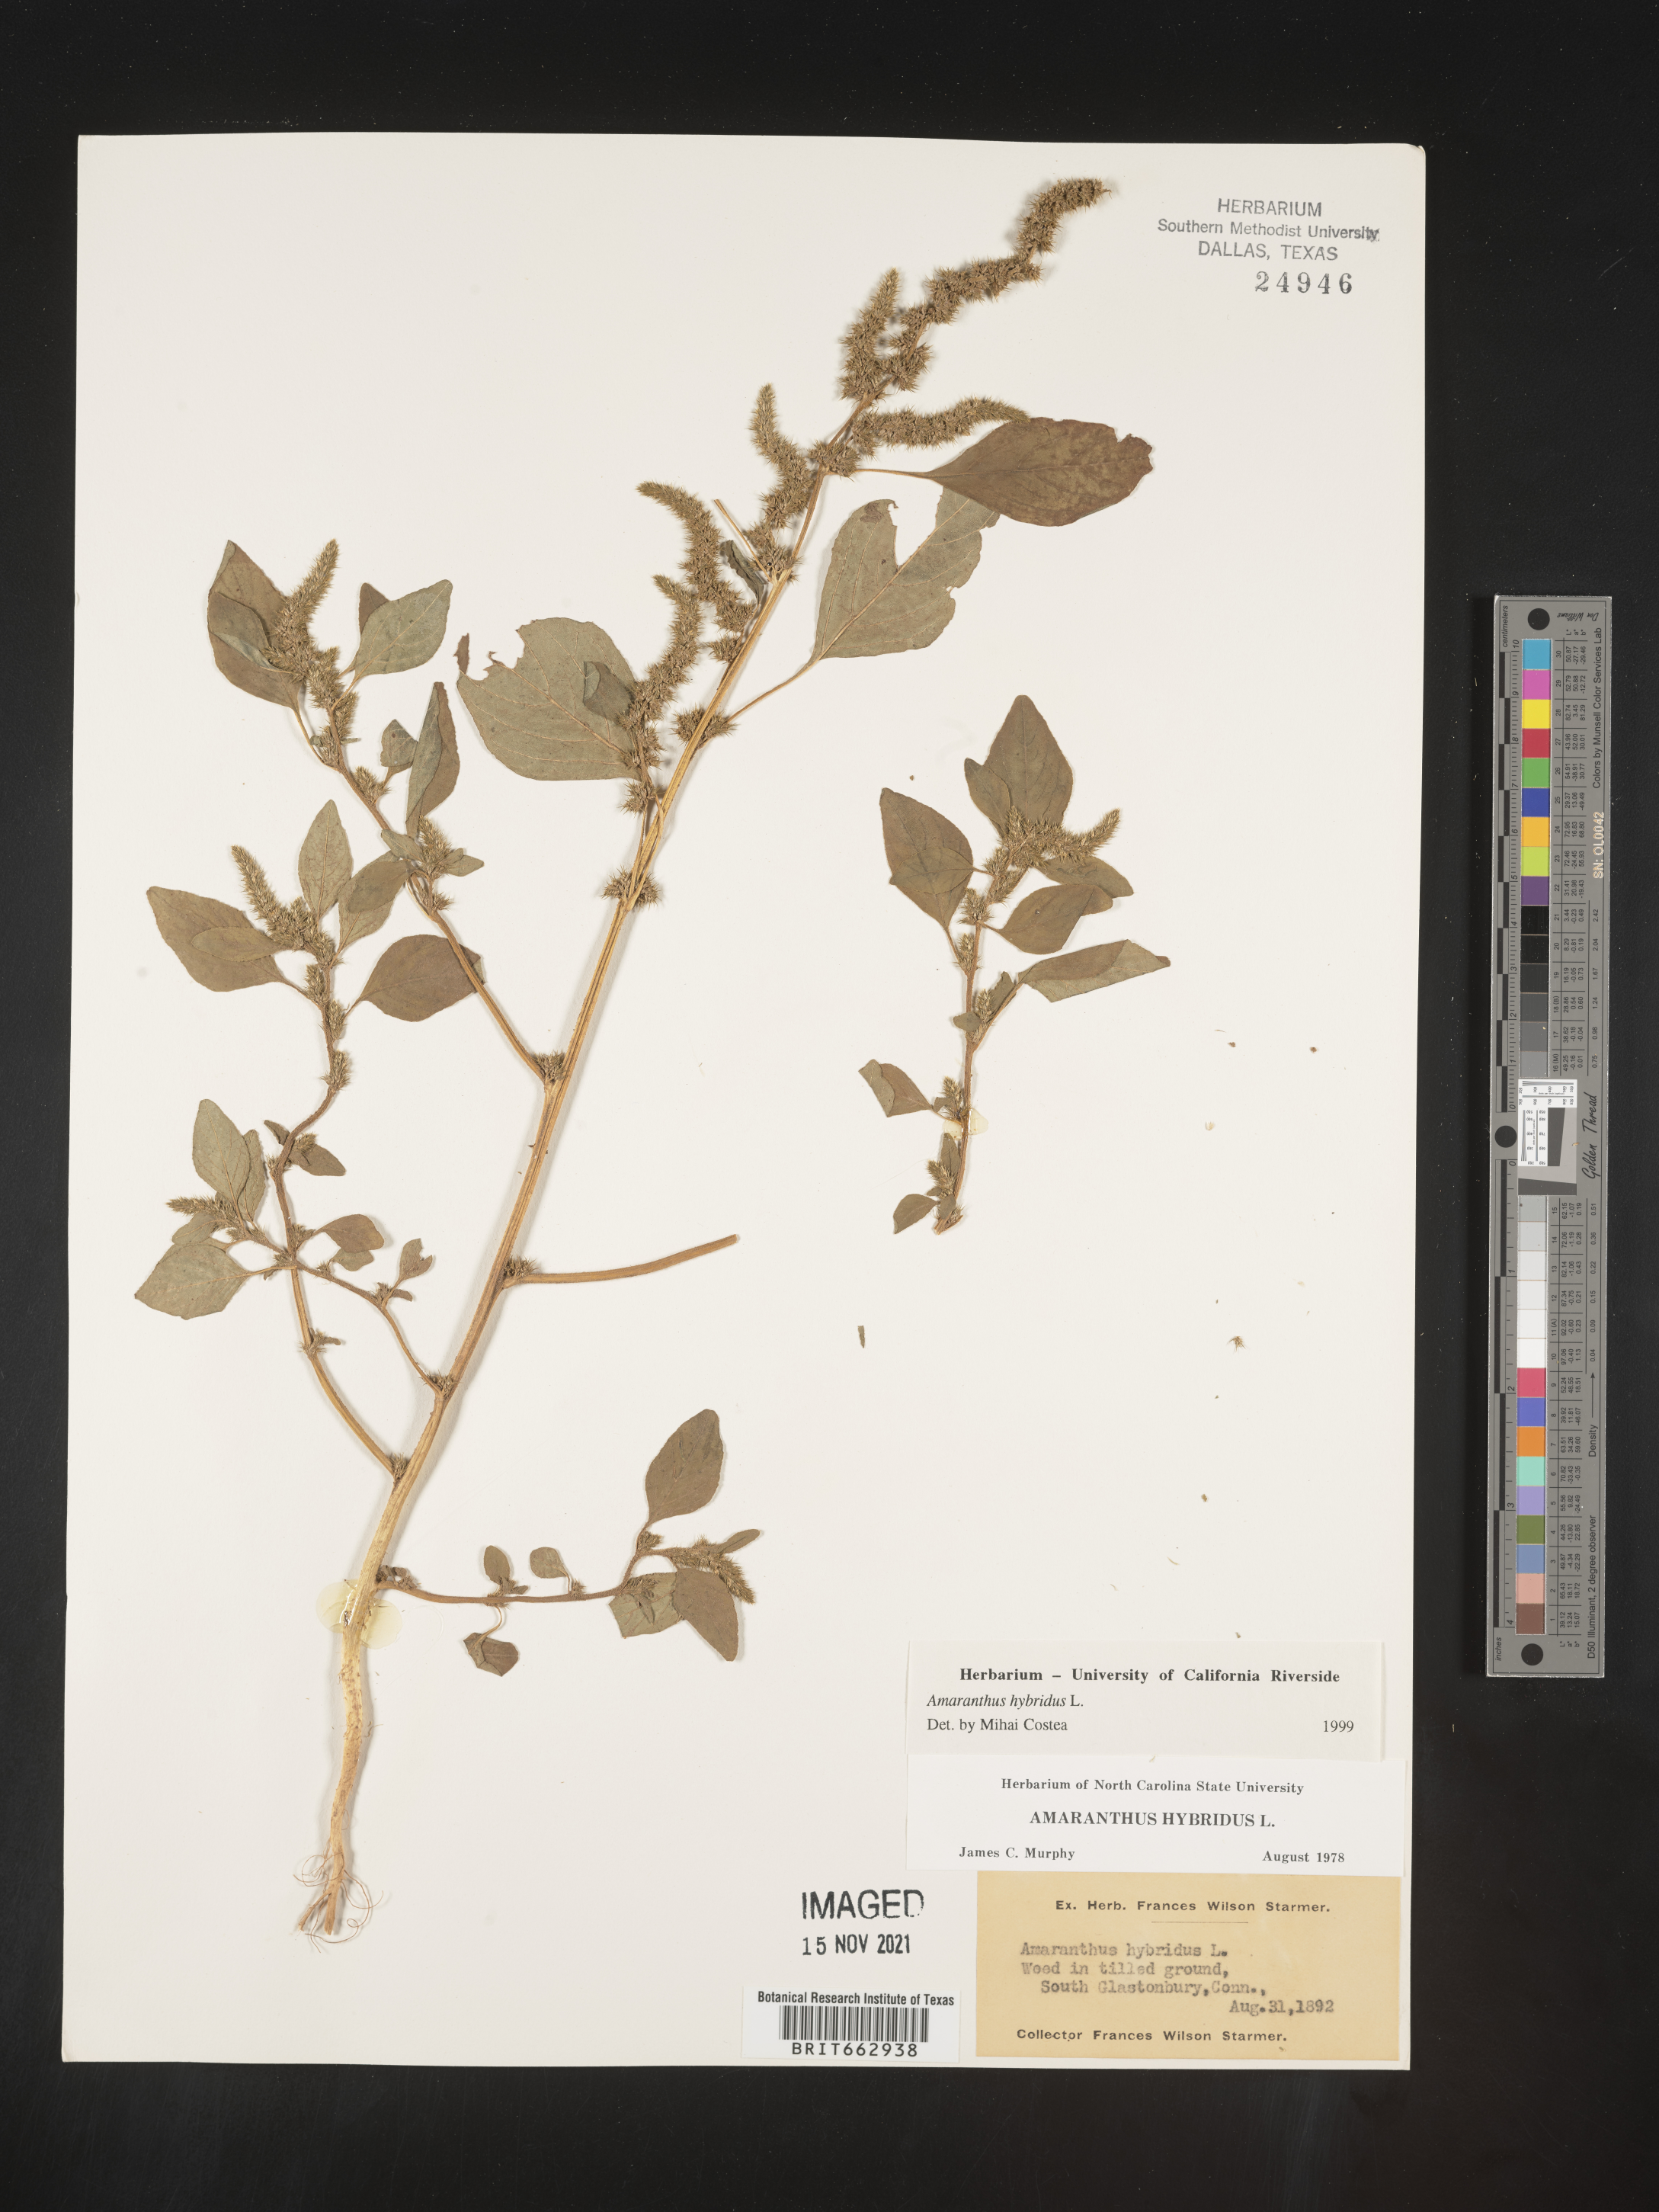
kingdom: Plantae
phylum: Tracheophyta
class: Magnoliopsida
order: Caryophyllales
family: Amaranthaceae
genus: Amaranthus
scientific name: Amaranthus hybridus
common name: Green amaranth
